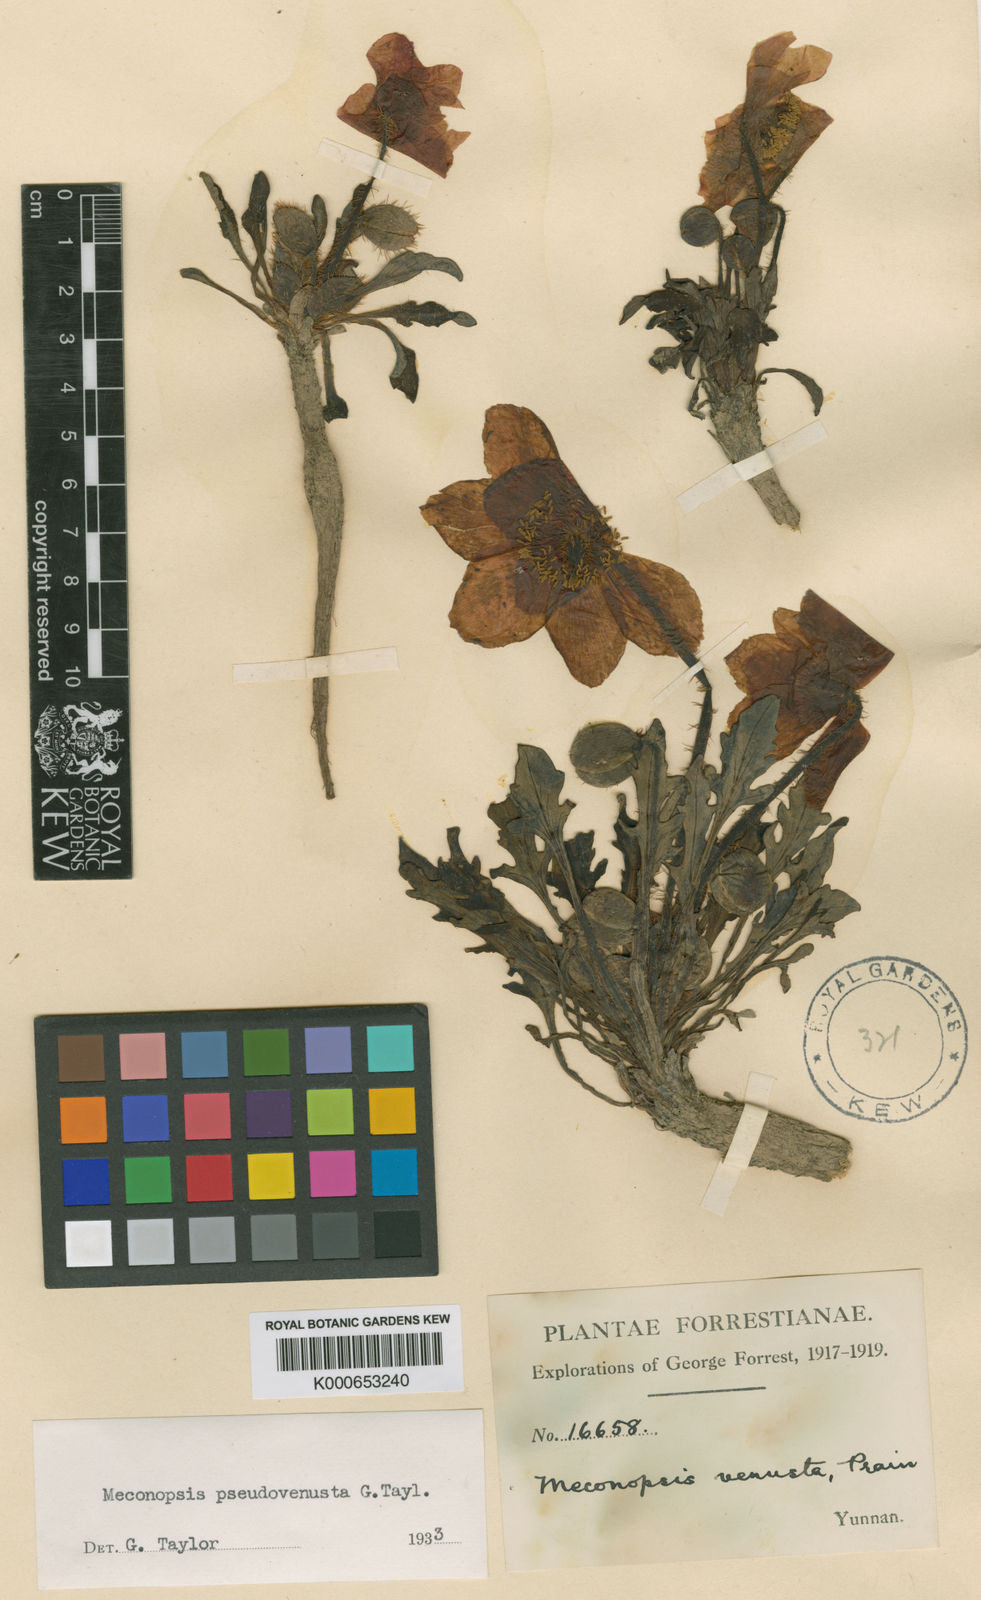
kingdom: Plantae
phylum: Tracheophyta
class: Magnoliopsida
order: Ranunculales
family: Papaveraceae
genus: Meconopsis
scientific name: Meconopsis pseudovenusta
